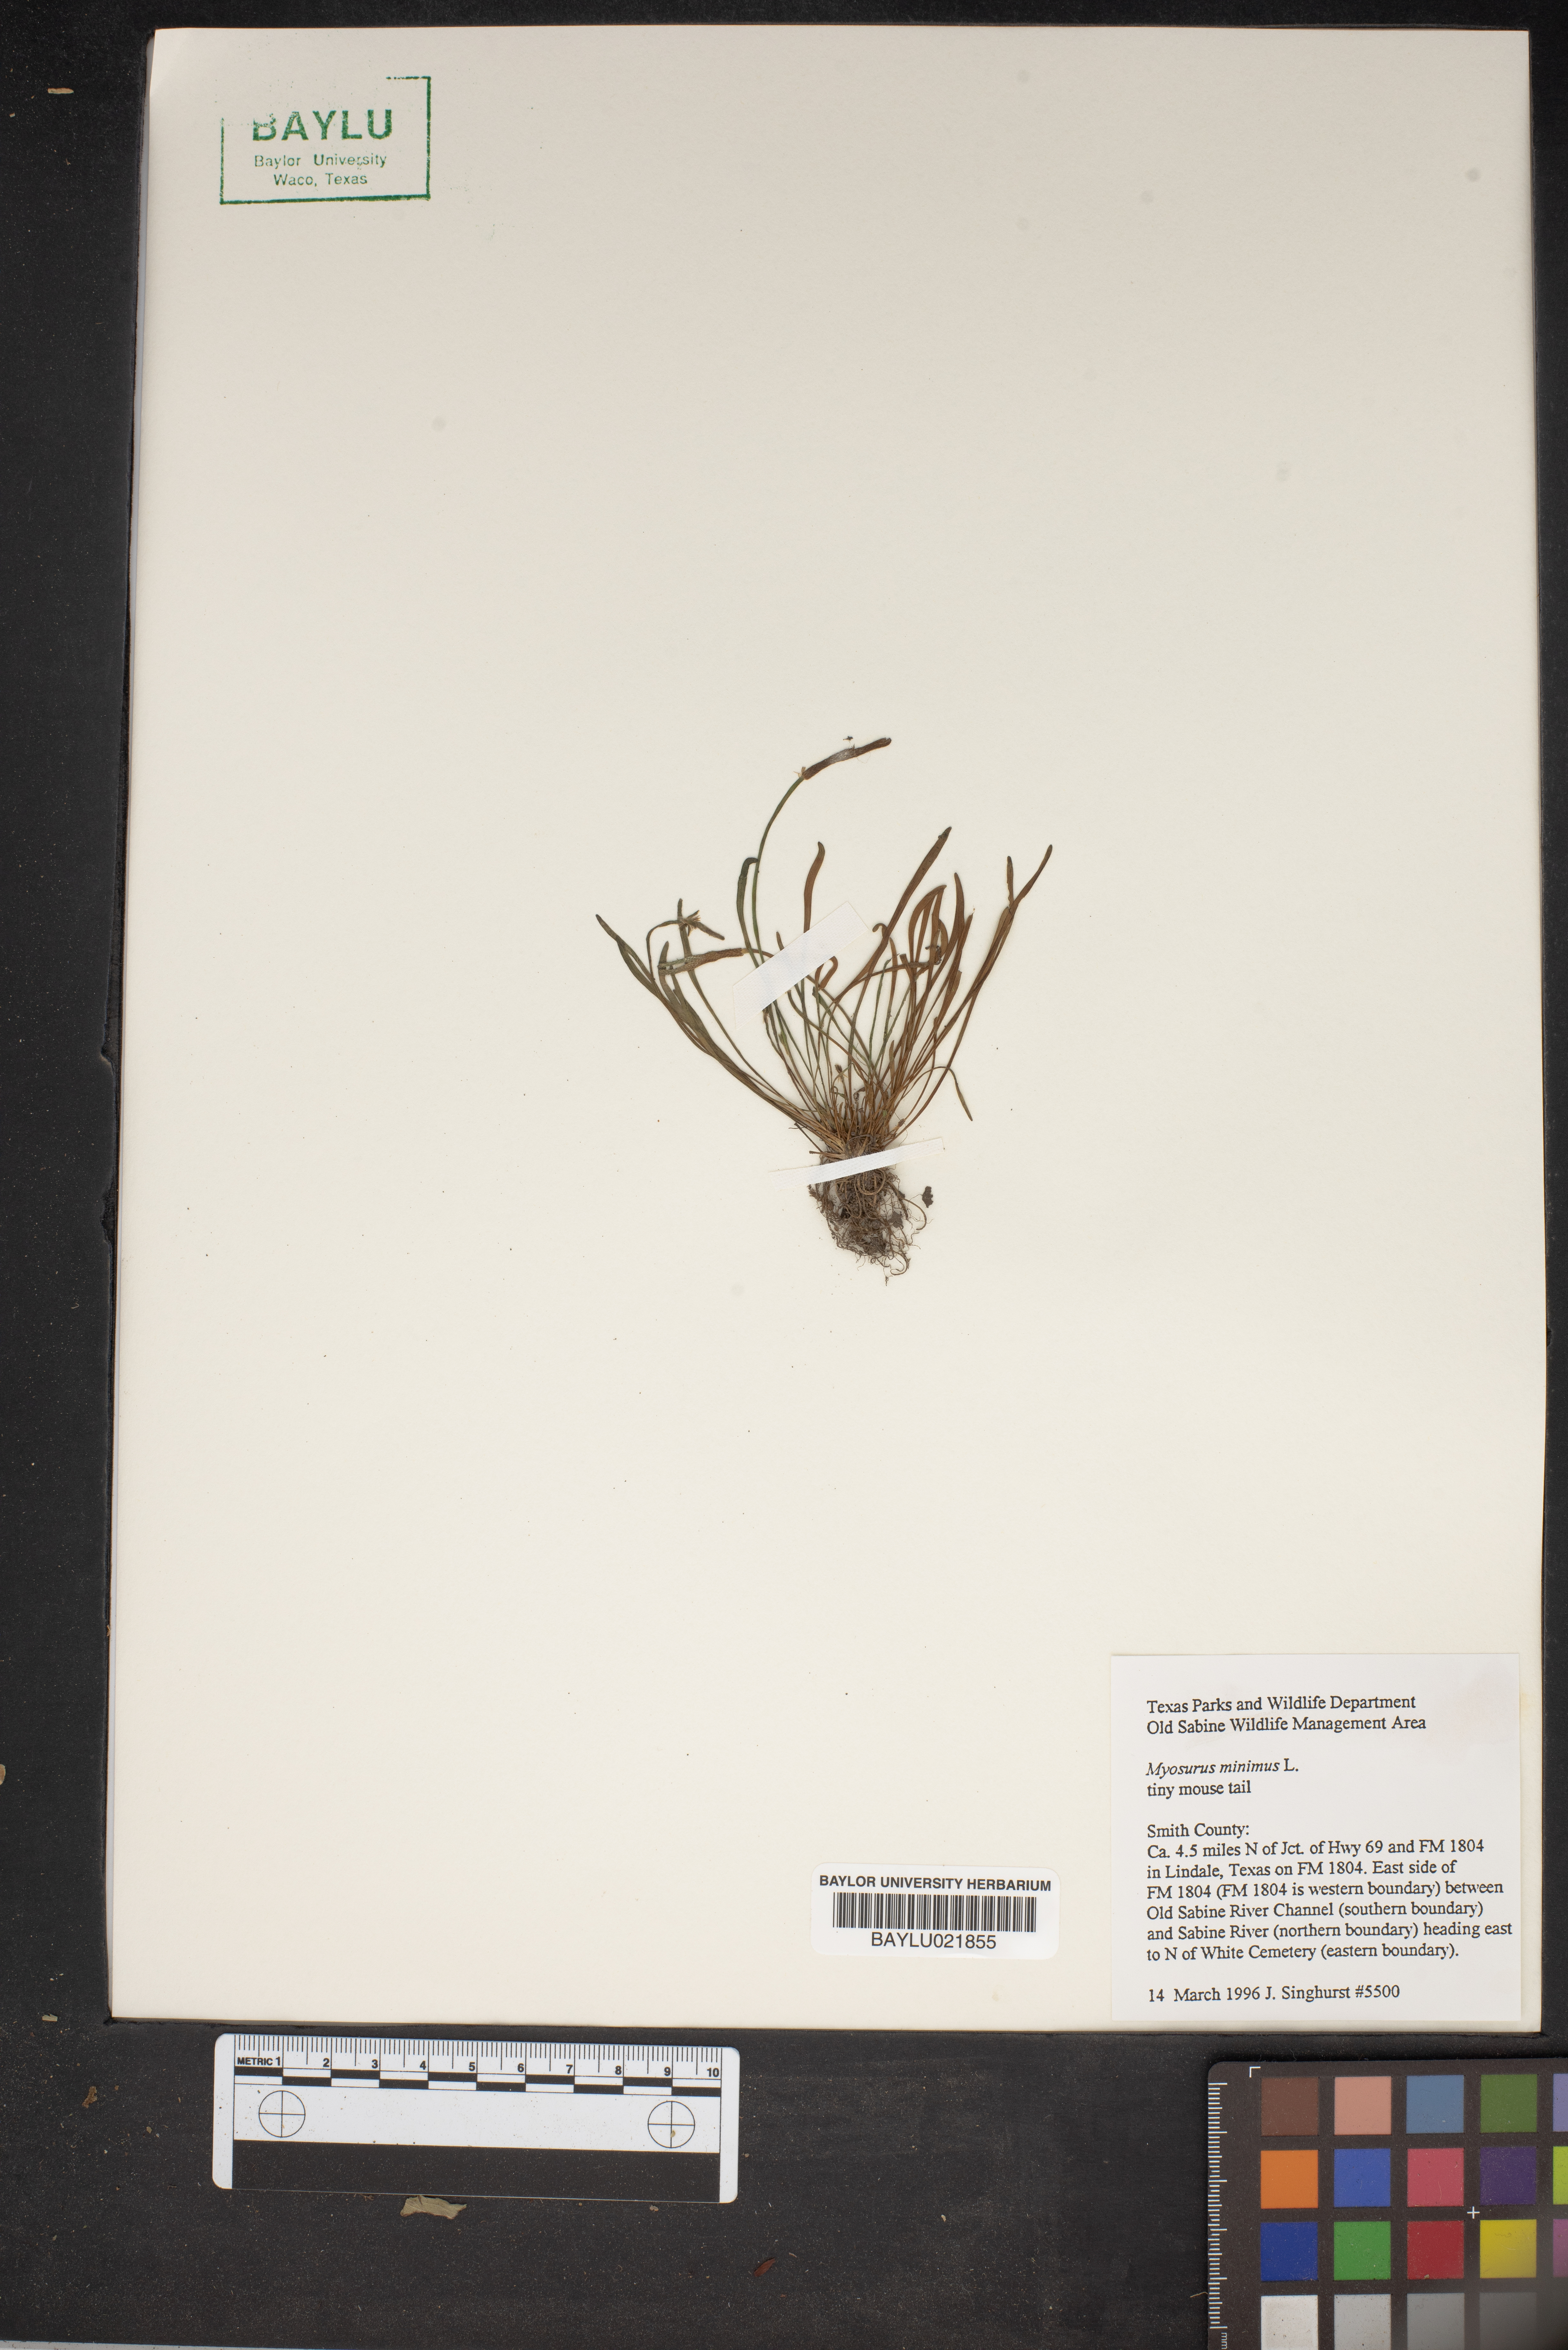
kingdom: Plantae
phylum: Tracheophyta
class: Magnoliopsida
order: Ranunculales
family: Ranunculaceae
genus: Myosurus
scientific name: Myosurus minimus
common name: Mousetail
